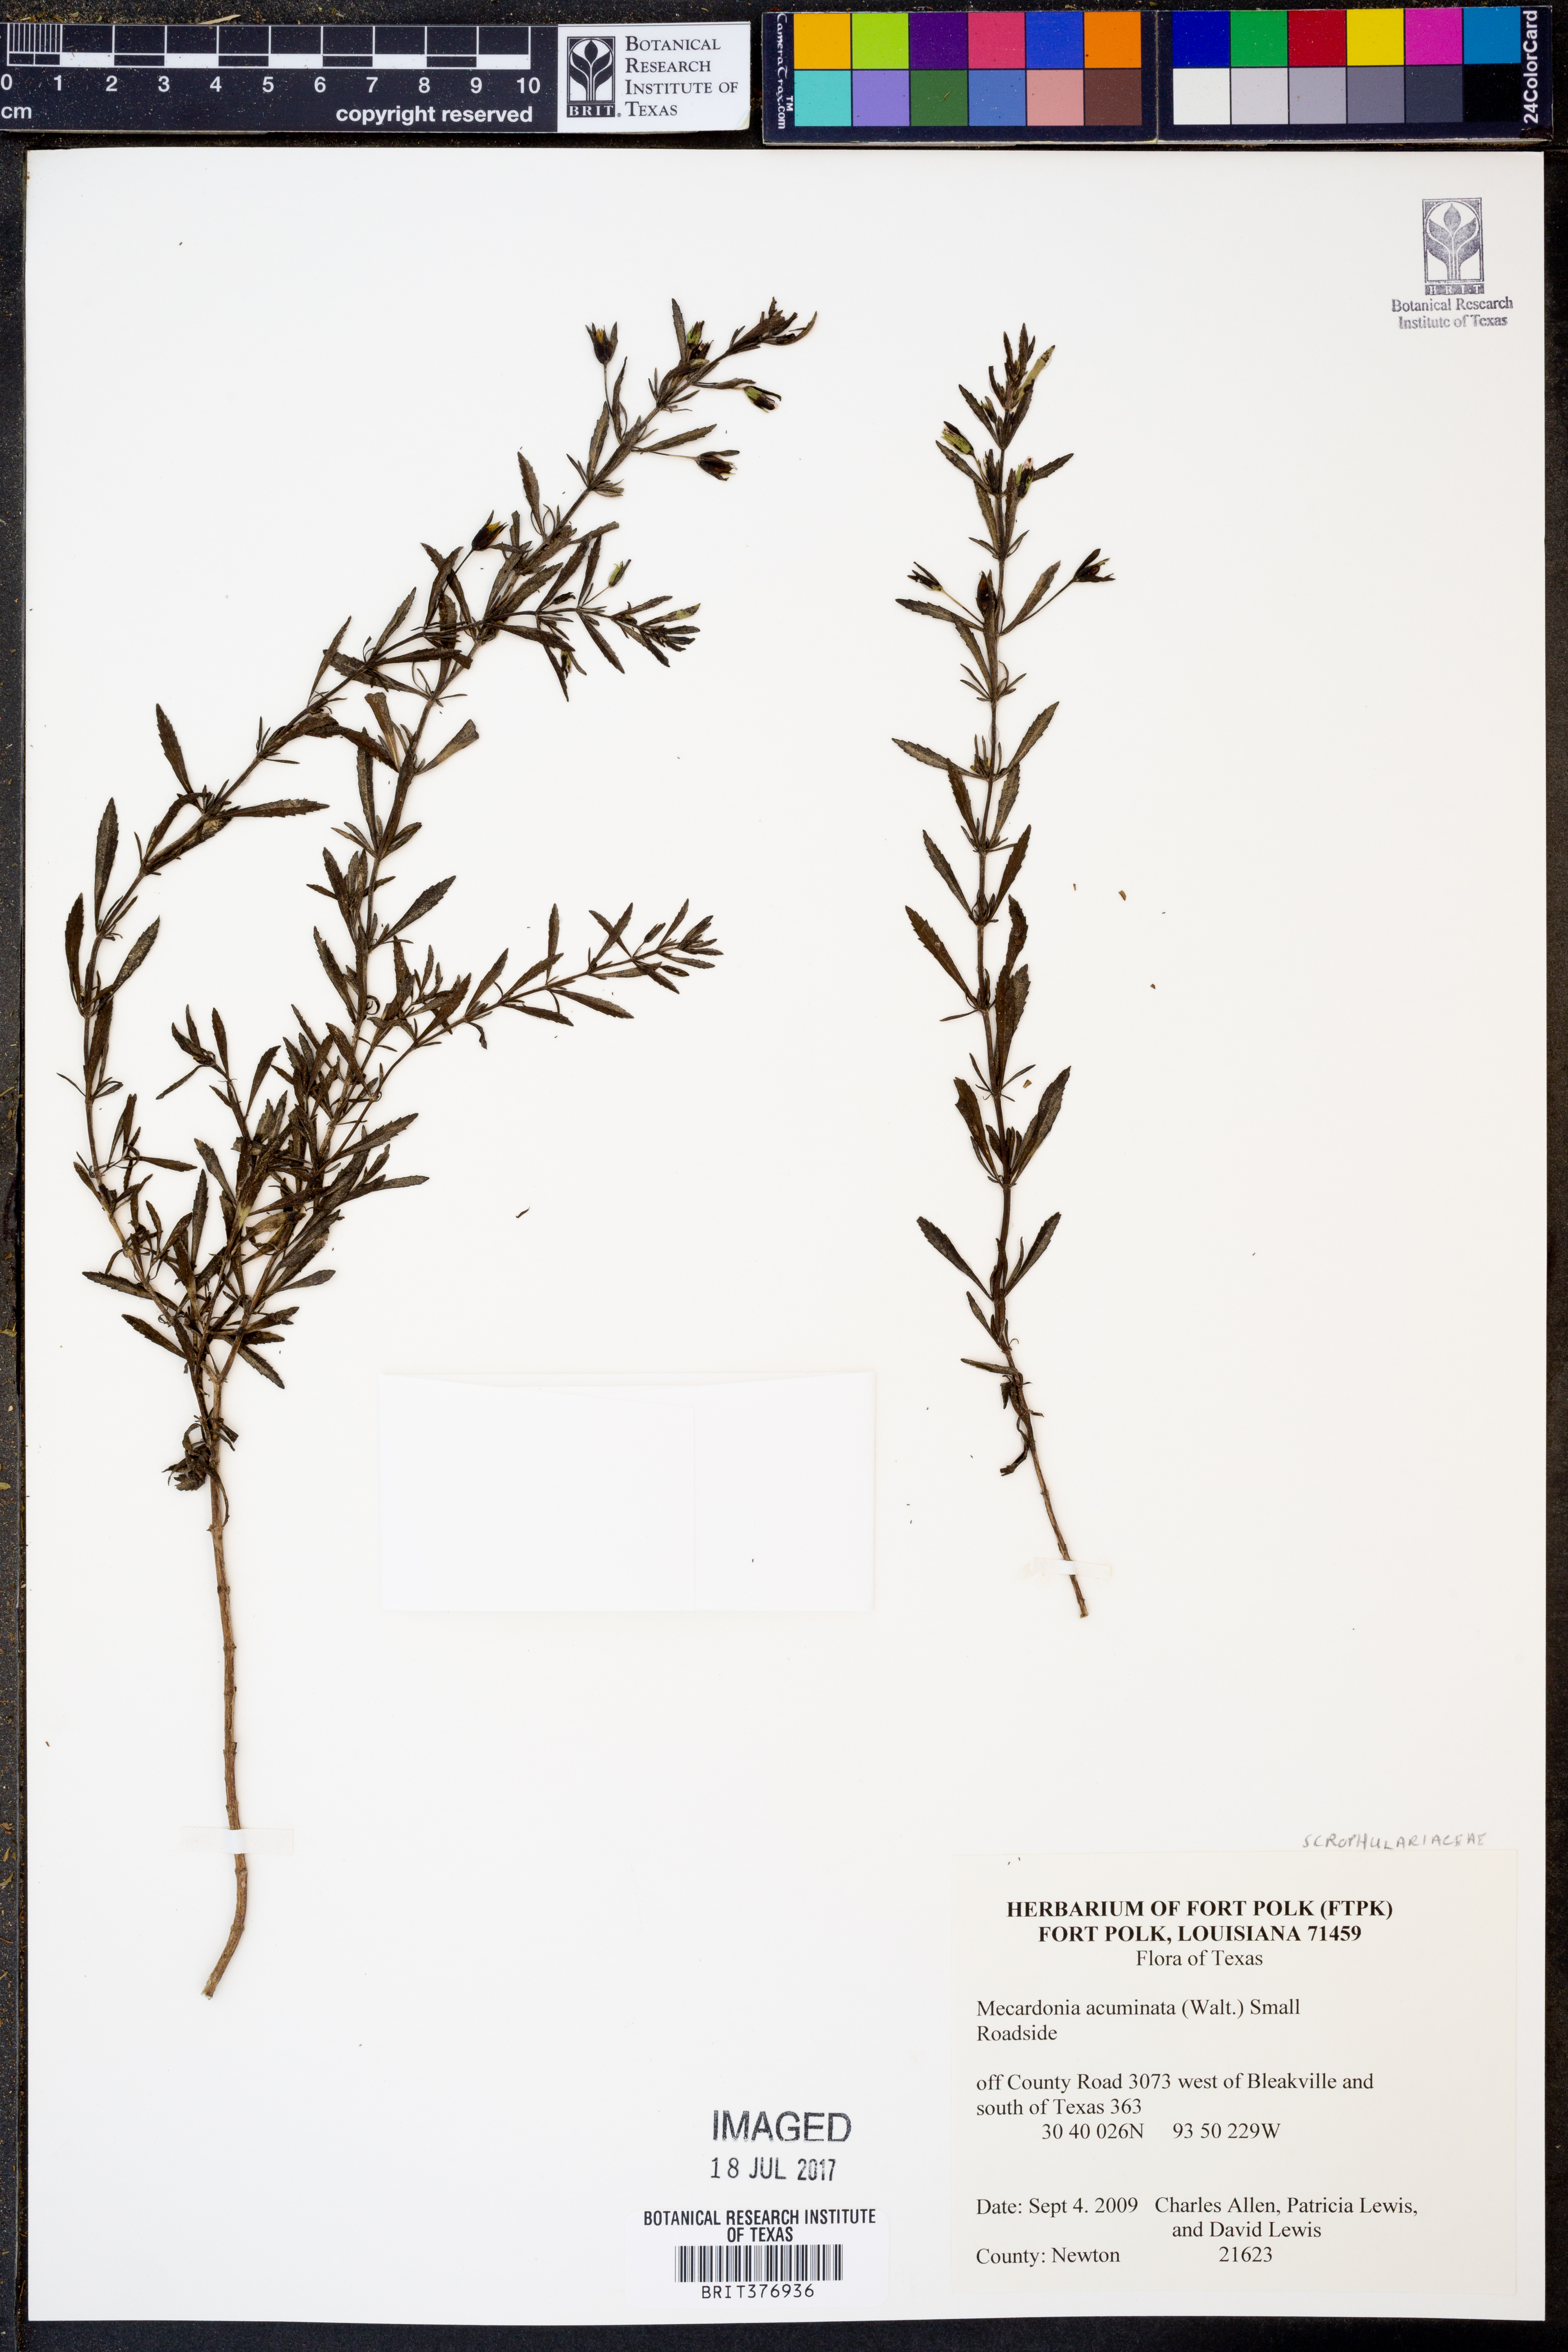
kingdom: Plantae
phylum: Tracheophyta
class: Magnoliopsida
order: Lamiales
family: Plantaginaceae
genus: Mecardonia
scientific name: Mecardonia acuminata
